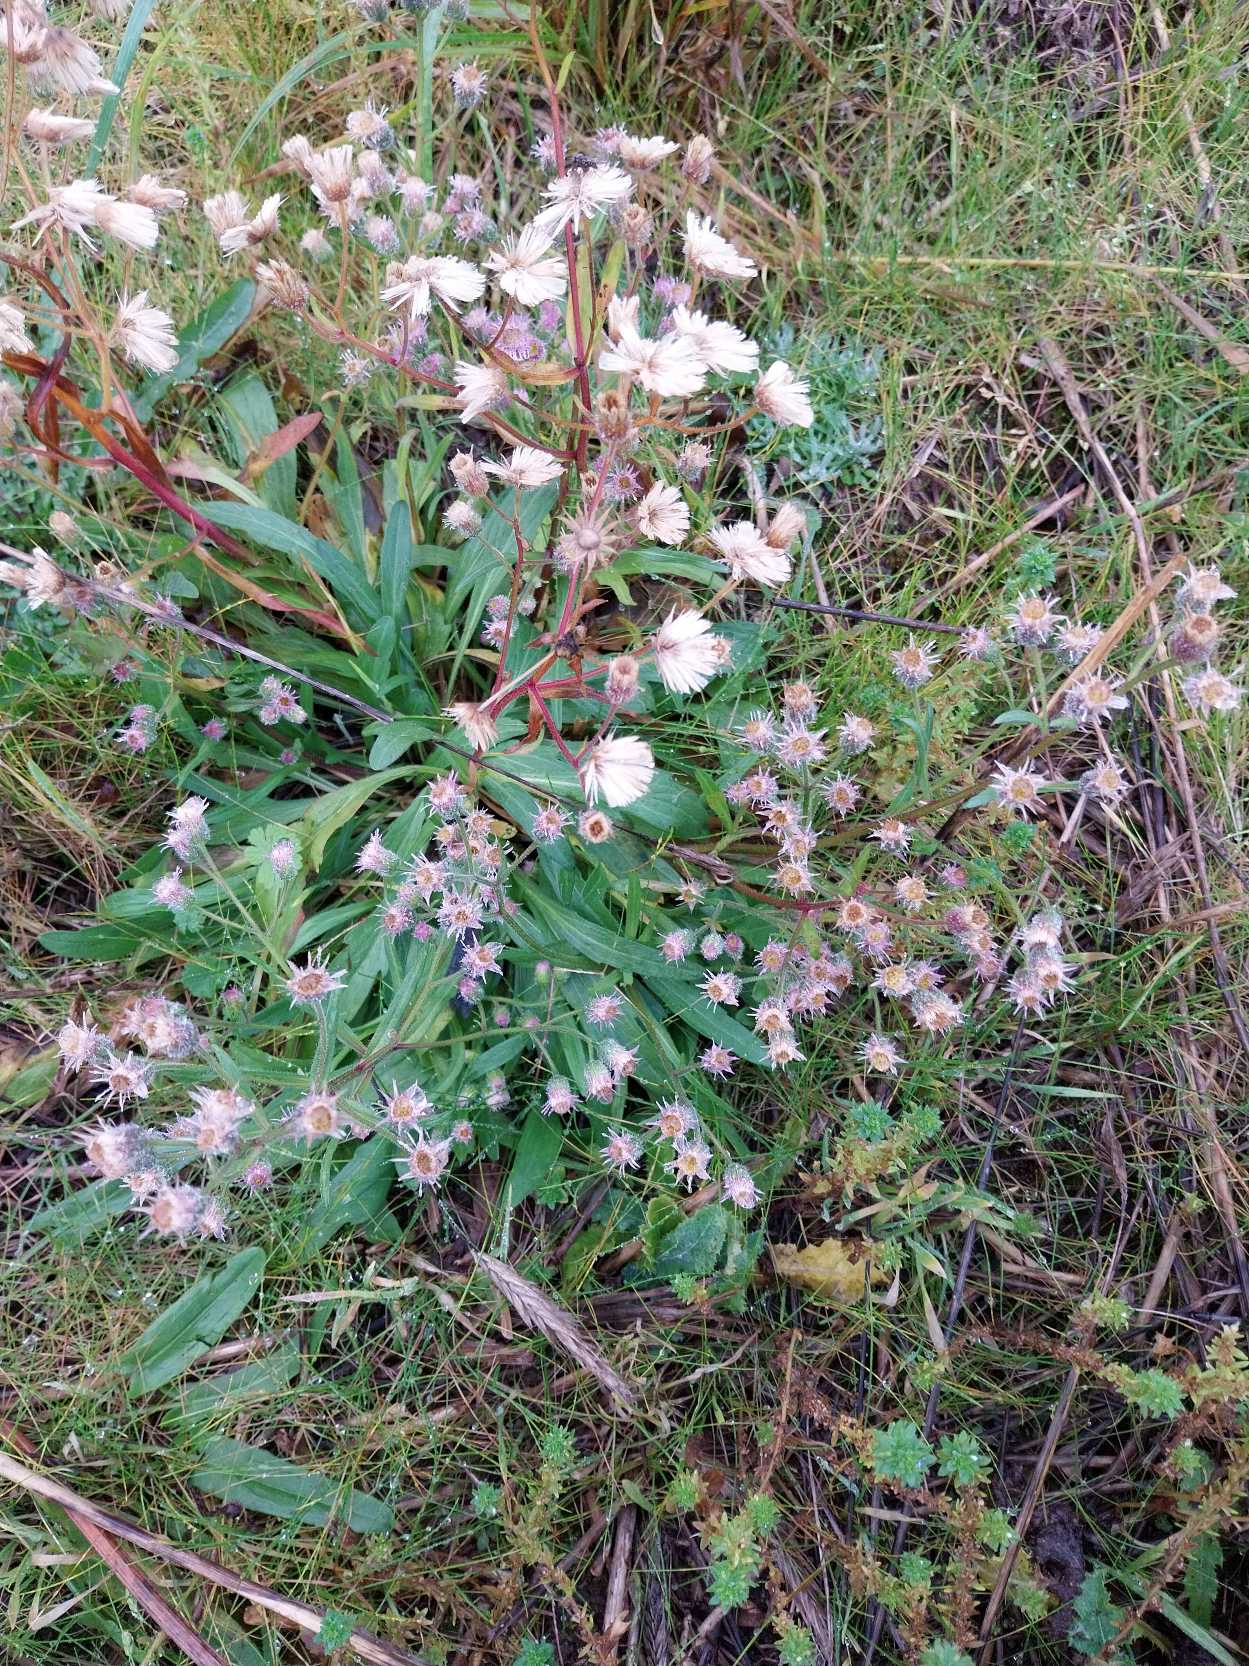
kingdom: Plantae
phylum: Tracheophyta
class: Magnoliopsida
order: Asterales
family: Asteraceae
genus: Erigeron
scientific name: Erigeron acris
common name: Bitter bakkestjerne
